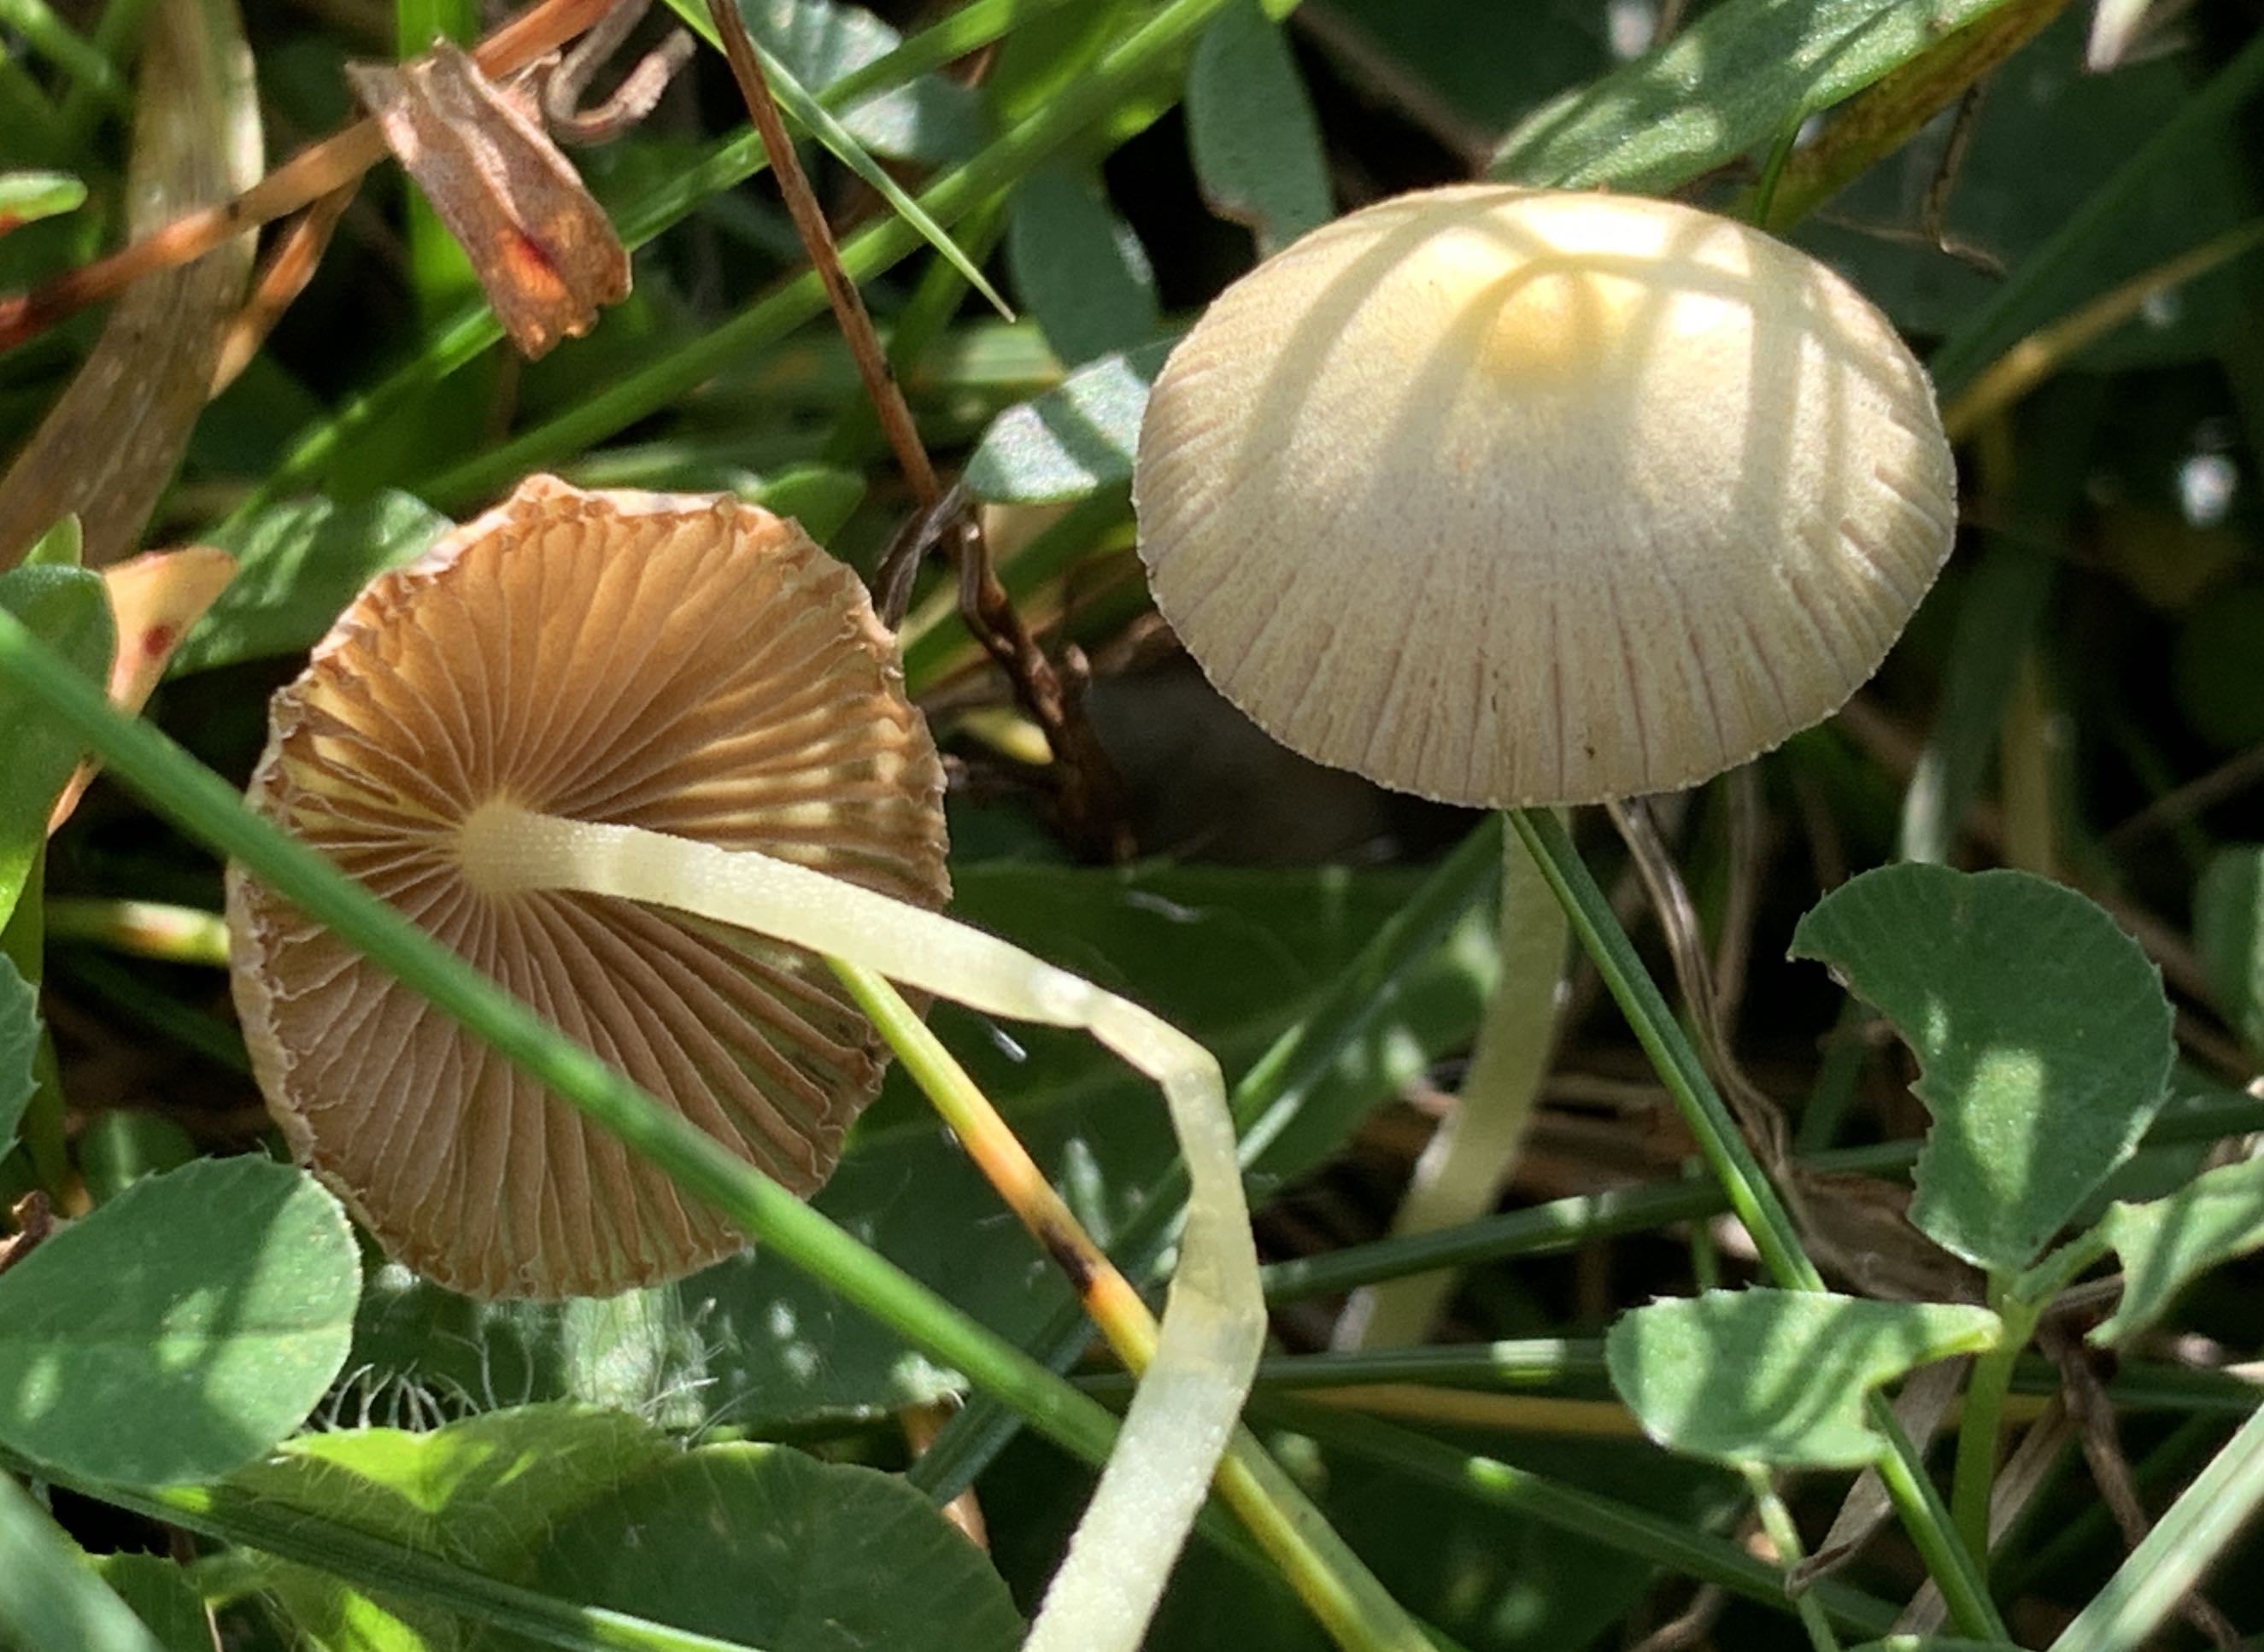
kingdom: Fungi
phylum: Basidiomycota
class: Agaricomycetes
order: Agaricales
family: Bolbitiaceae
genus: Bolbitius
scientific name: Bolbitius titubans
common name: almindelig gulhat
